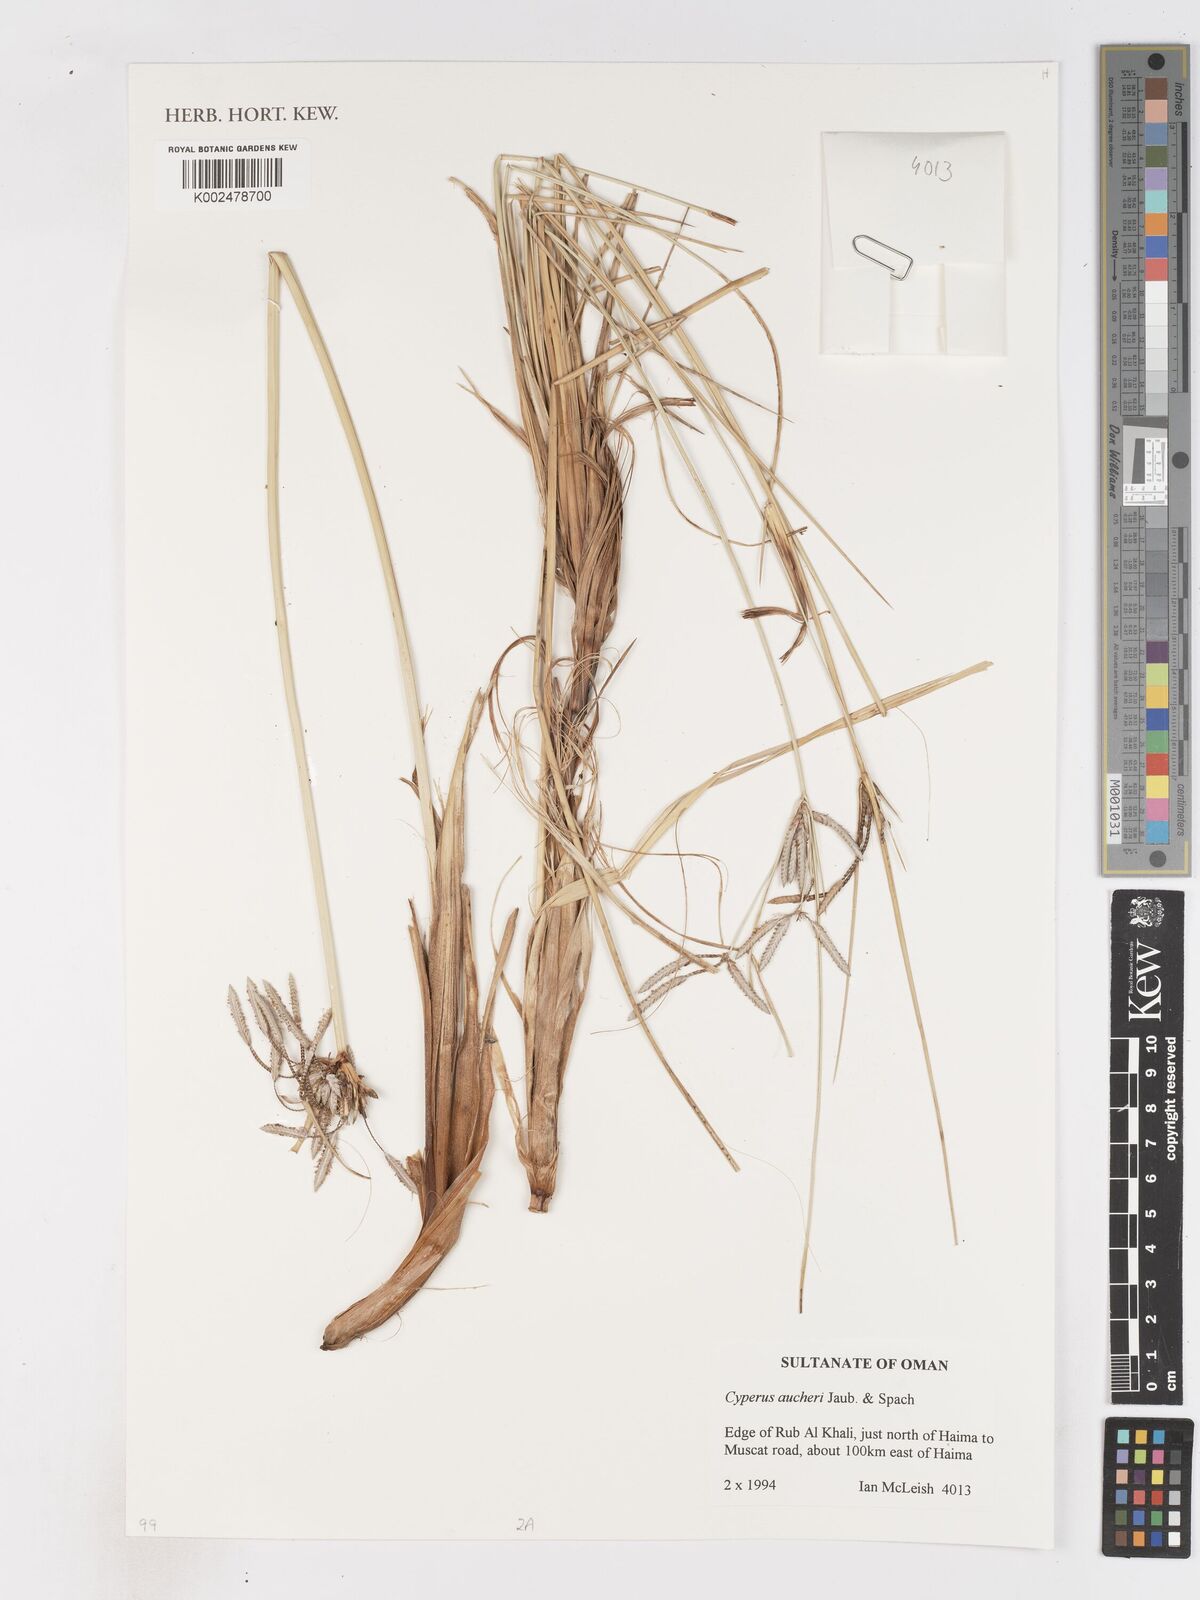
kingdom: Plantae
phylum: Tracheophyta
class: Liliopsida
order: Poales
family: Cyperaceae
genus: Cyperus
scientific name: Cyperus conglomeratus
